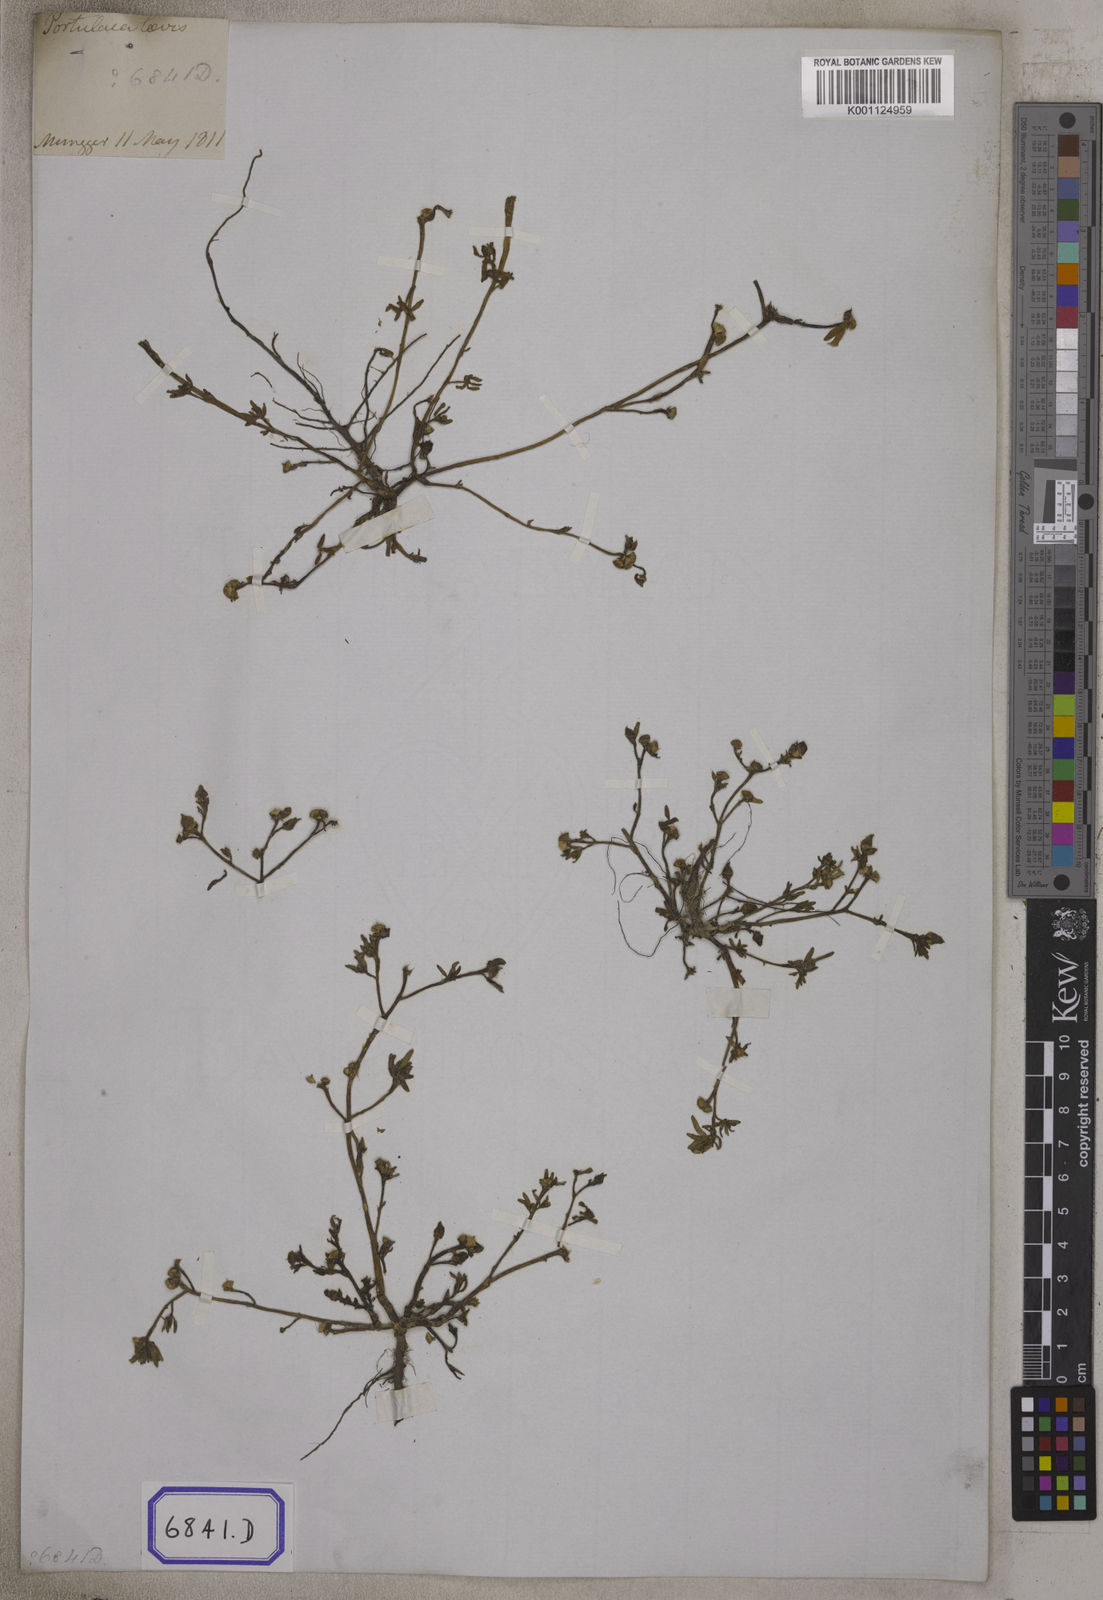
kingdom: Plantae
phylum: Tracheophyta
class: Magnoliopsida
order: Caryophyllales
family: Portulacaceae
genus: Portulaca
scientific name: Portulaca oleracea
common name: Common purslane
